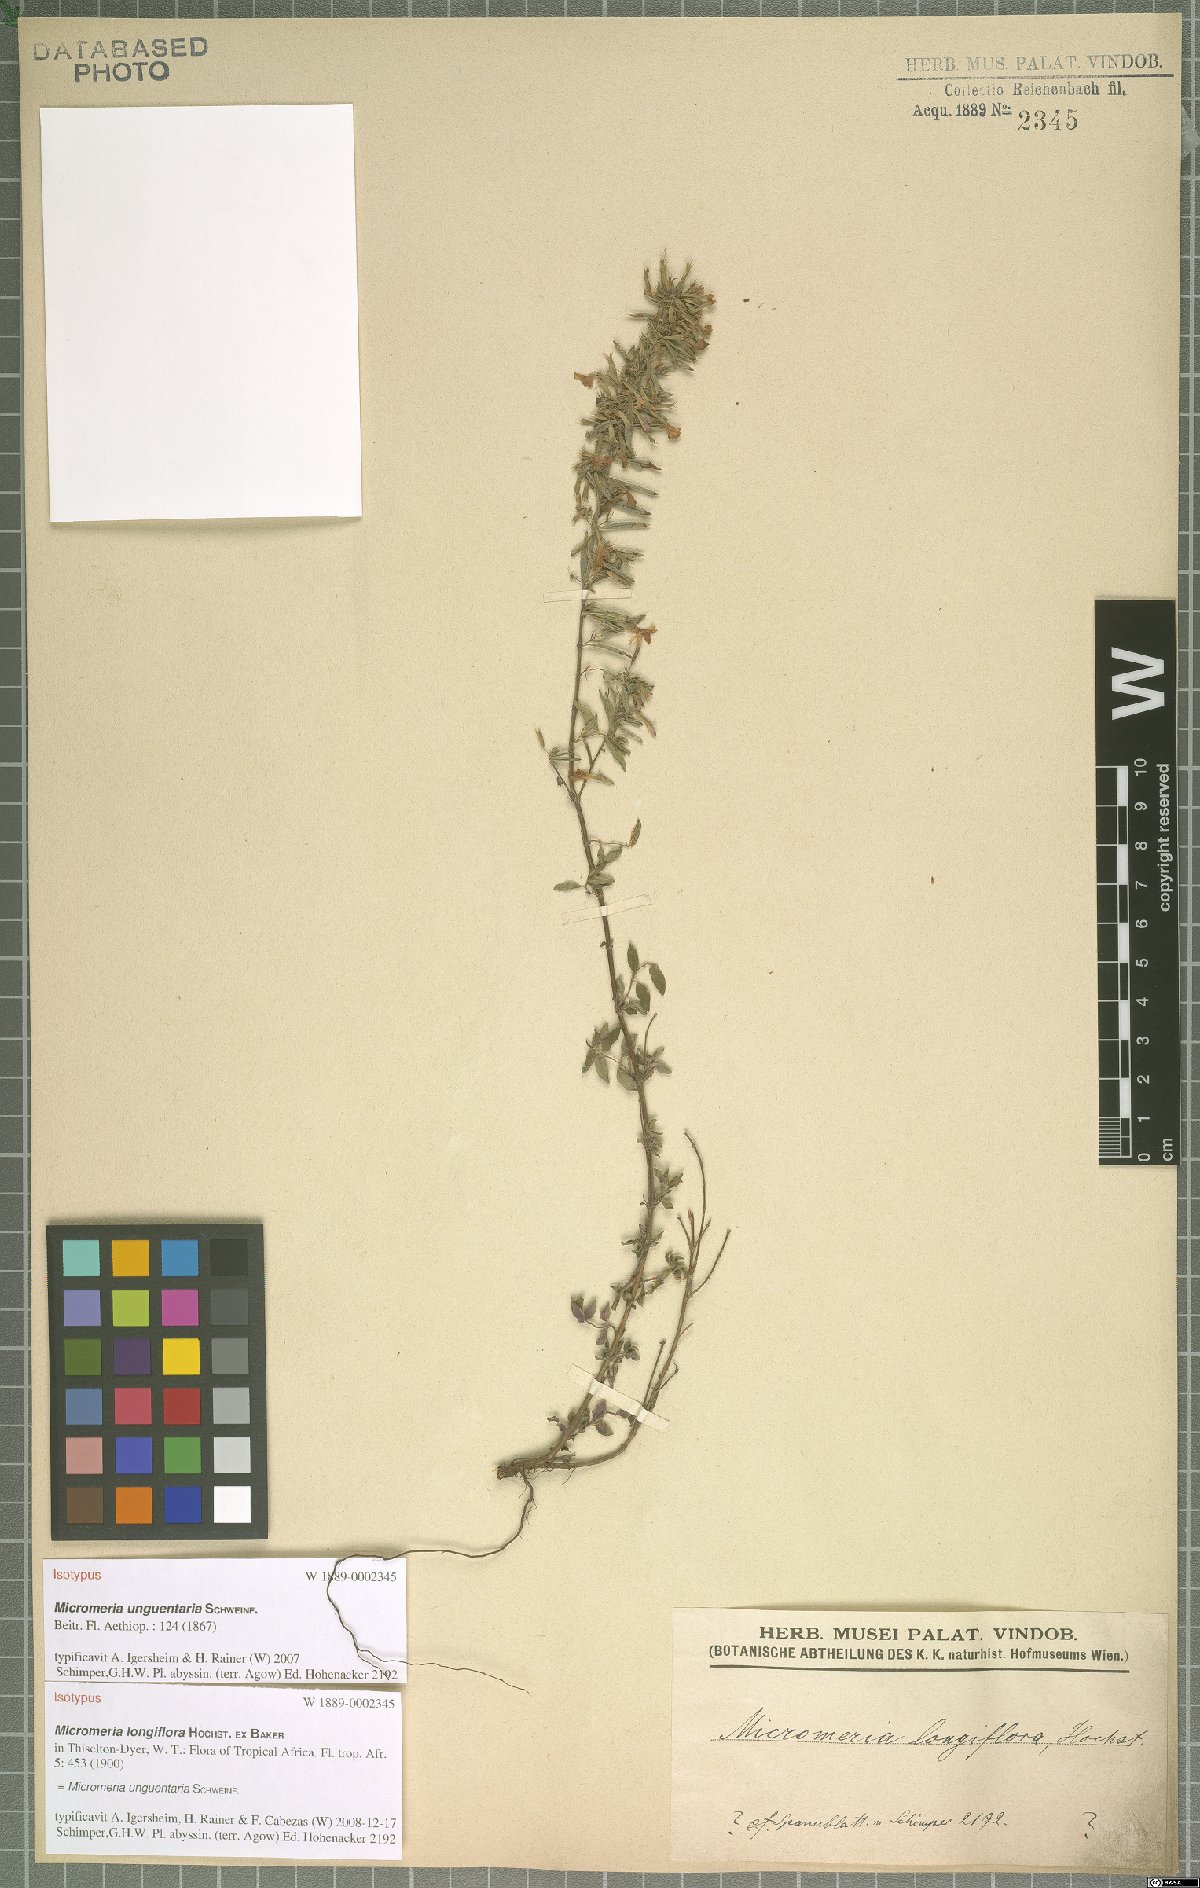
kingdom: Plantae
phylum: Tracheophyta
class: Magnoliopsida
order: Lamiales
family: Lamiaceae
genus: Micromeria
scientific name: Micromeria unguentaria
